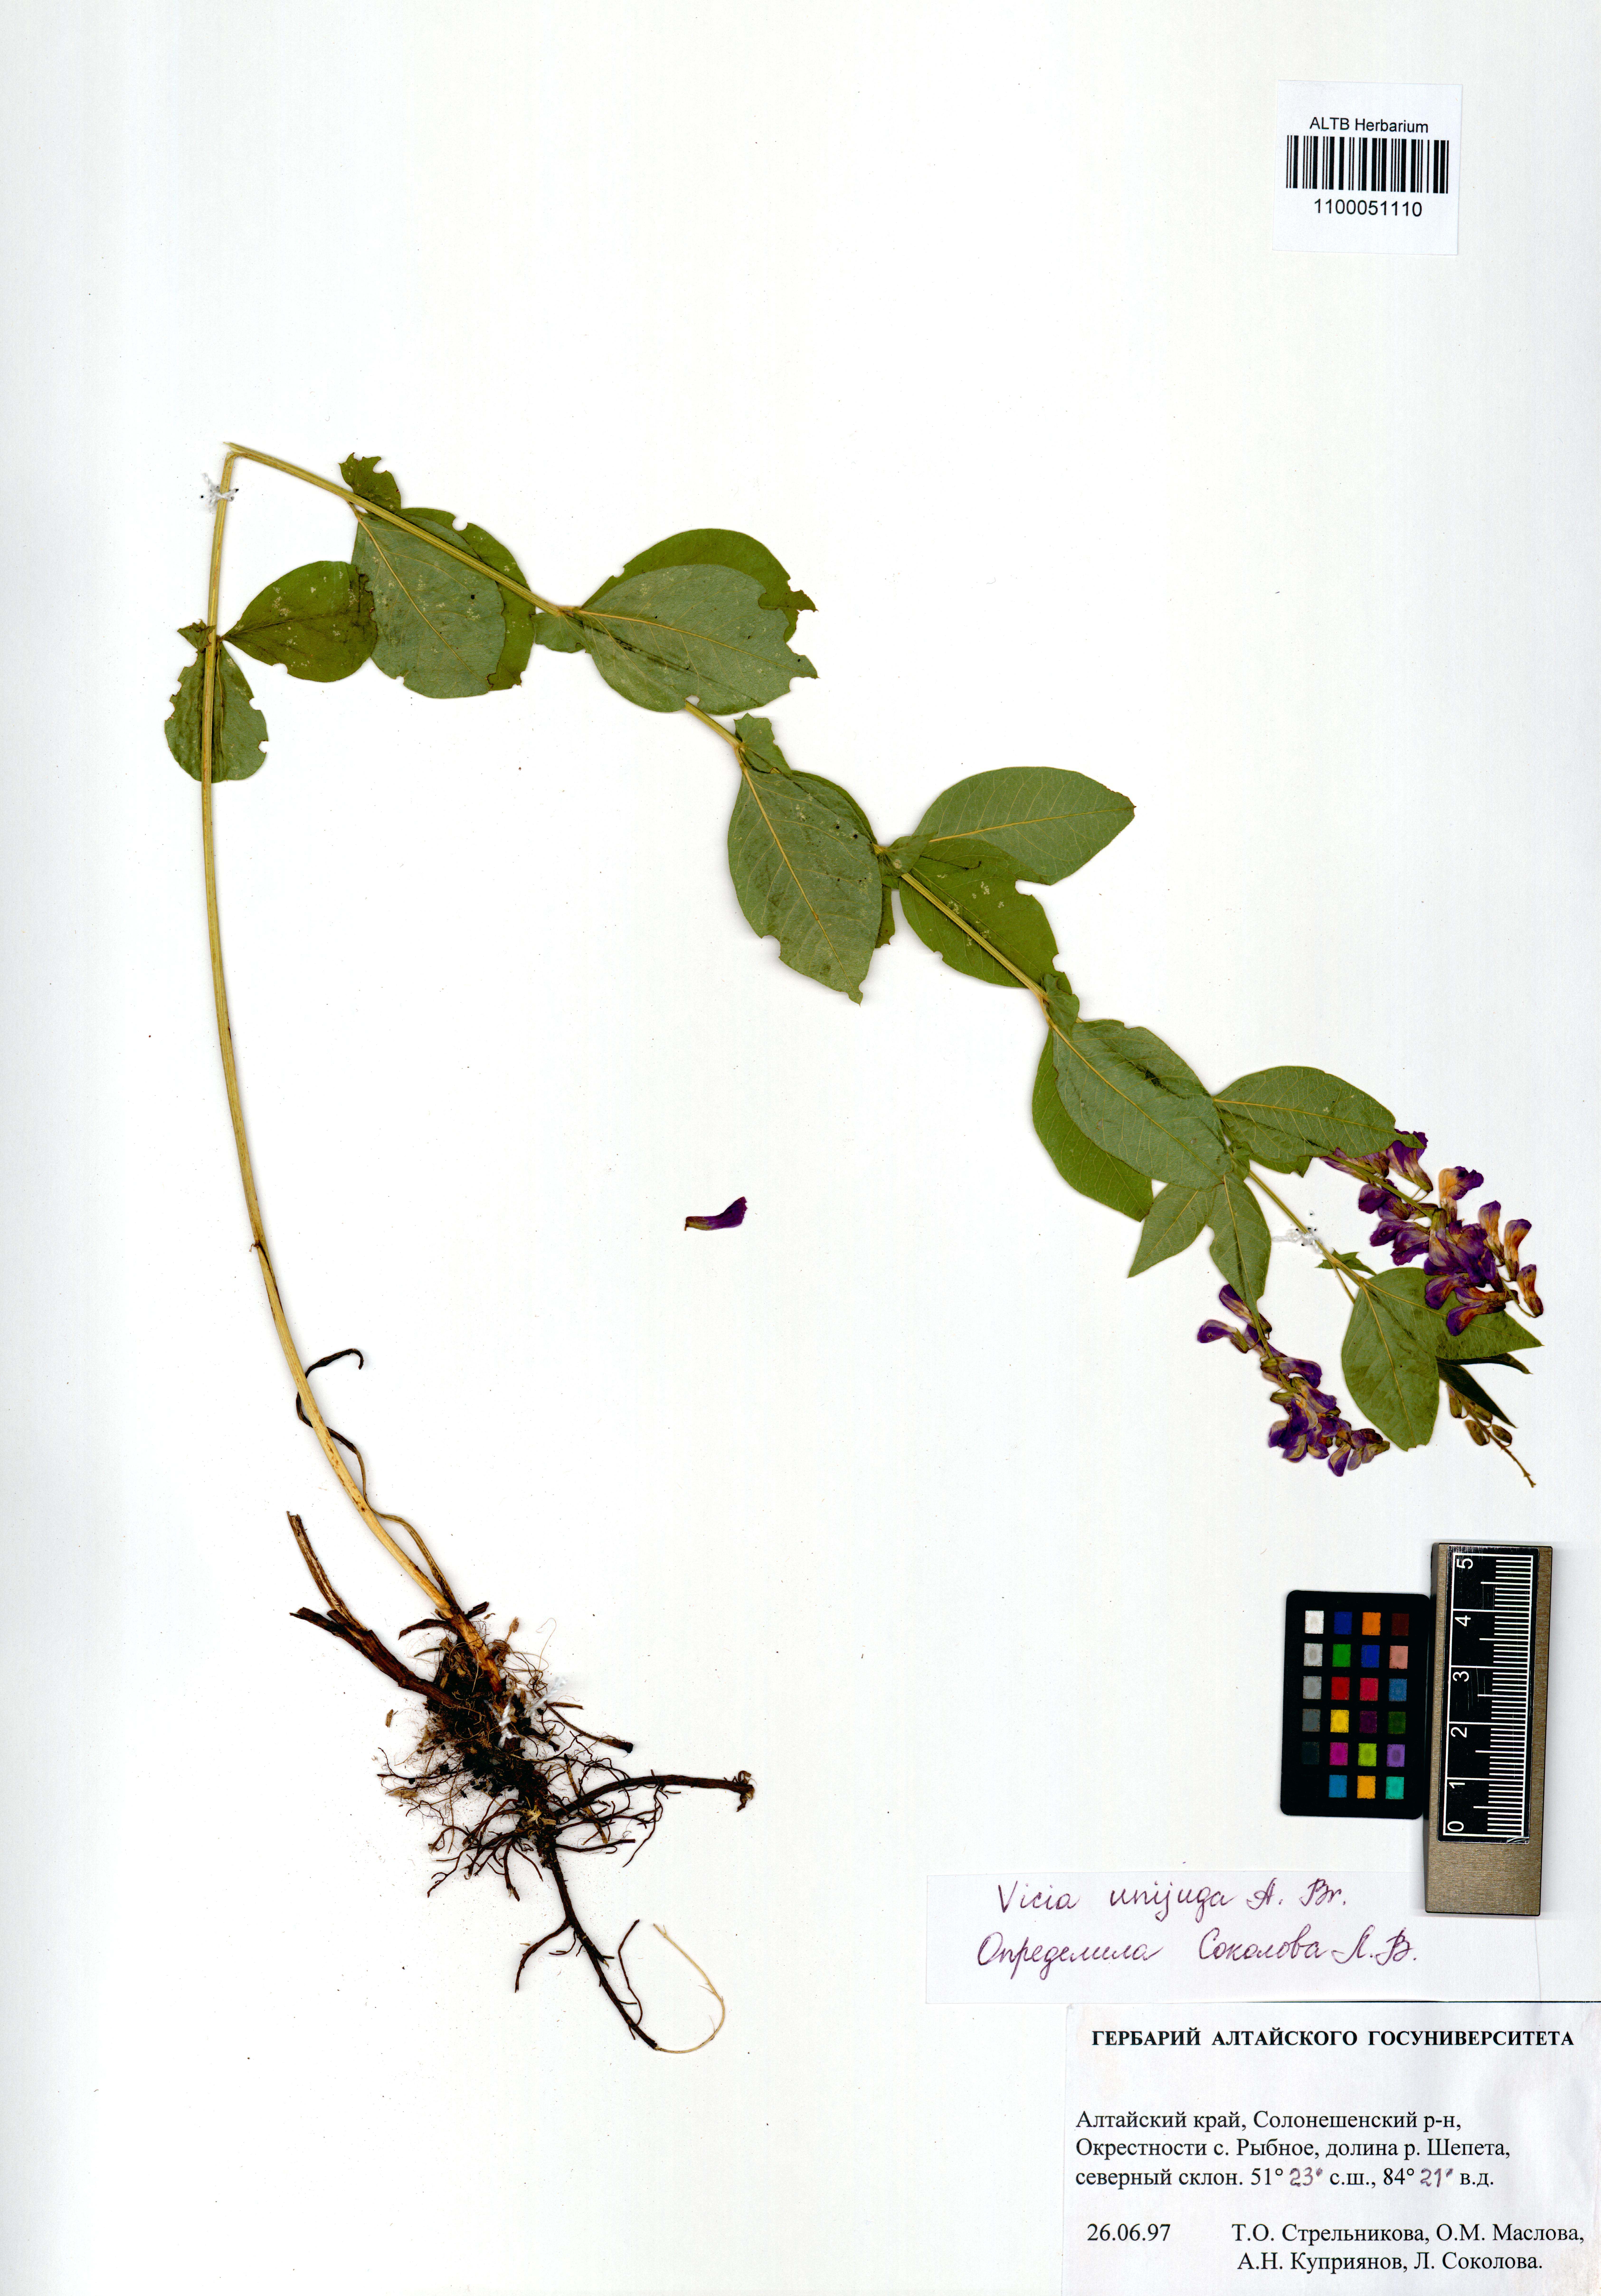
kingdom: Plantae
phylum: Tracheophyta
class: Magnoliopsida
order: Fabales
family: Fabaceae
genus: Vicia
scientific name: Vicia unijuga
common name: Two-leaf vetch
